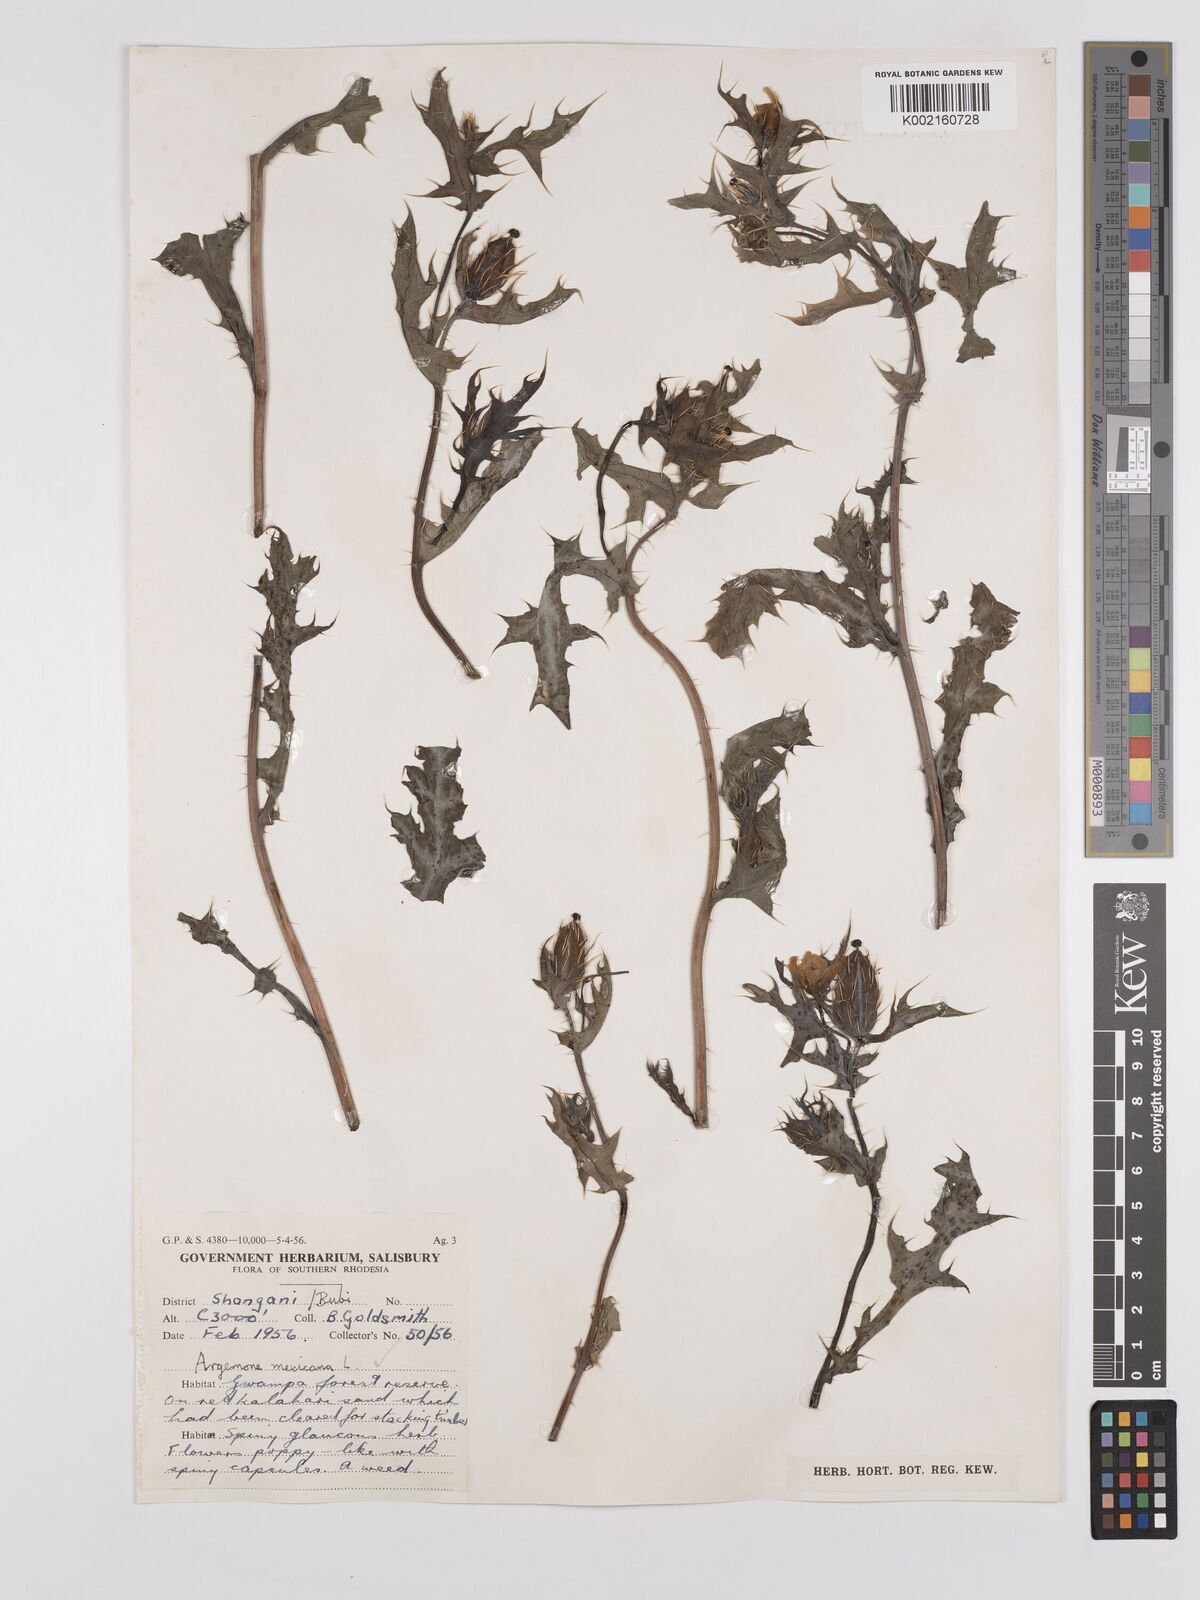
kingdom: Plantae
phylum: Tracheophyta
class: Magnoliopsida
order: Ranunculales
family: Papaveraceae
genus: Argemone
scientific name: Argemone mexicana
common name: Mexican poppy
